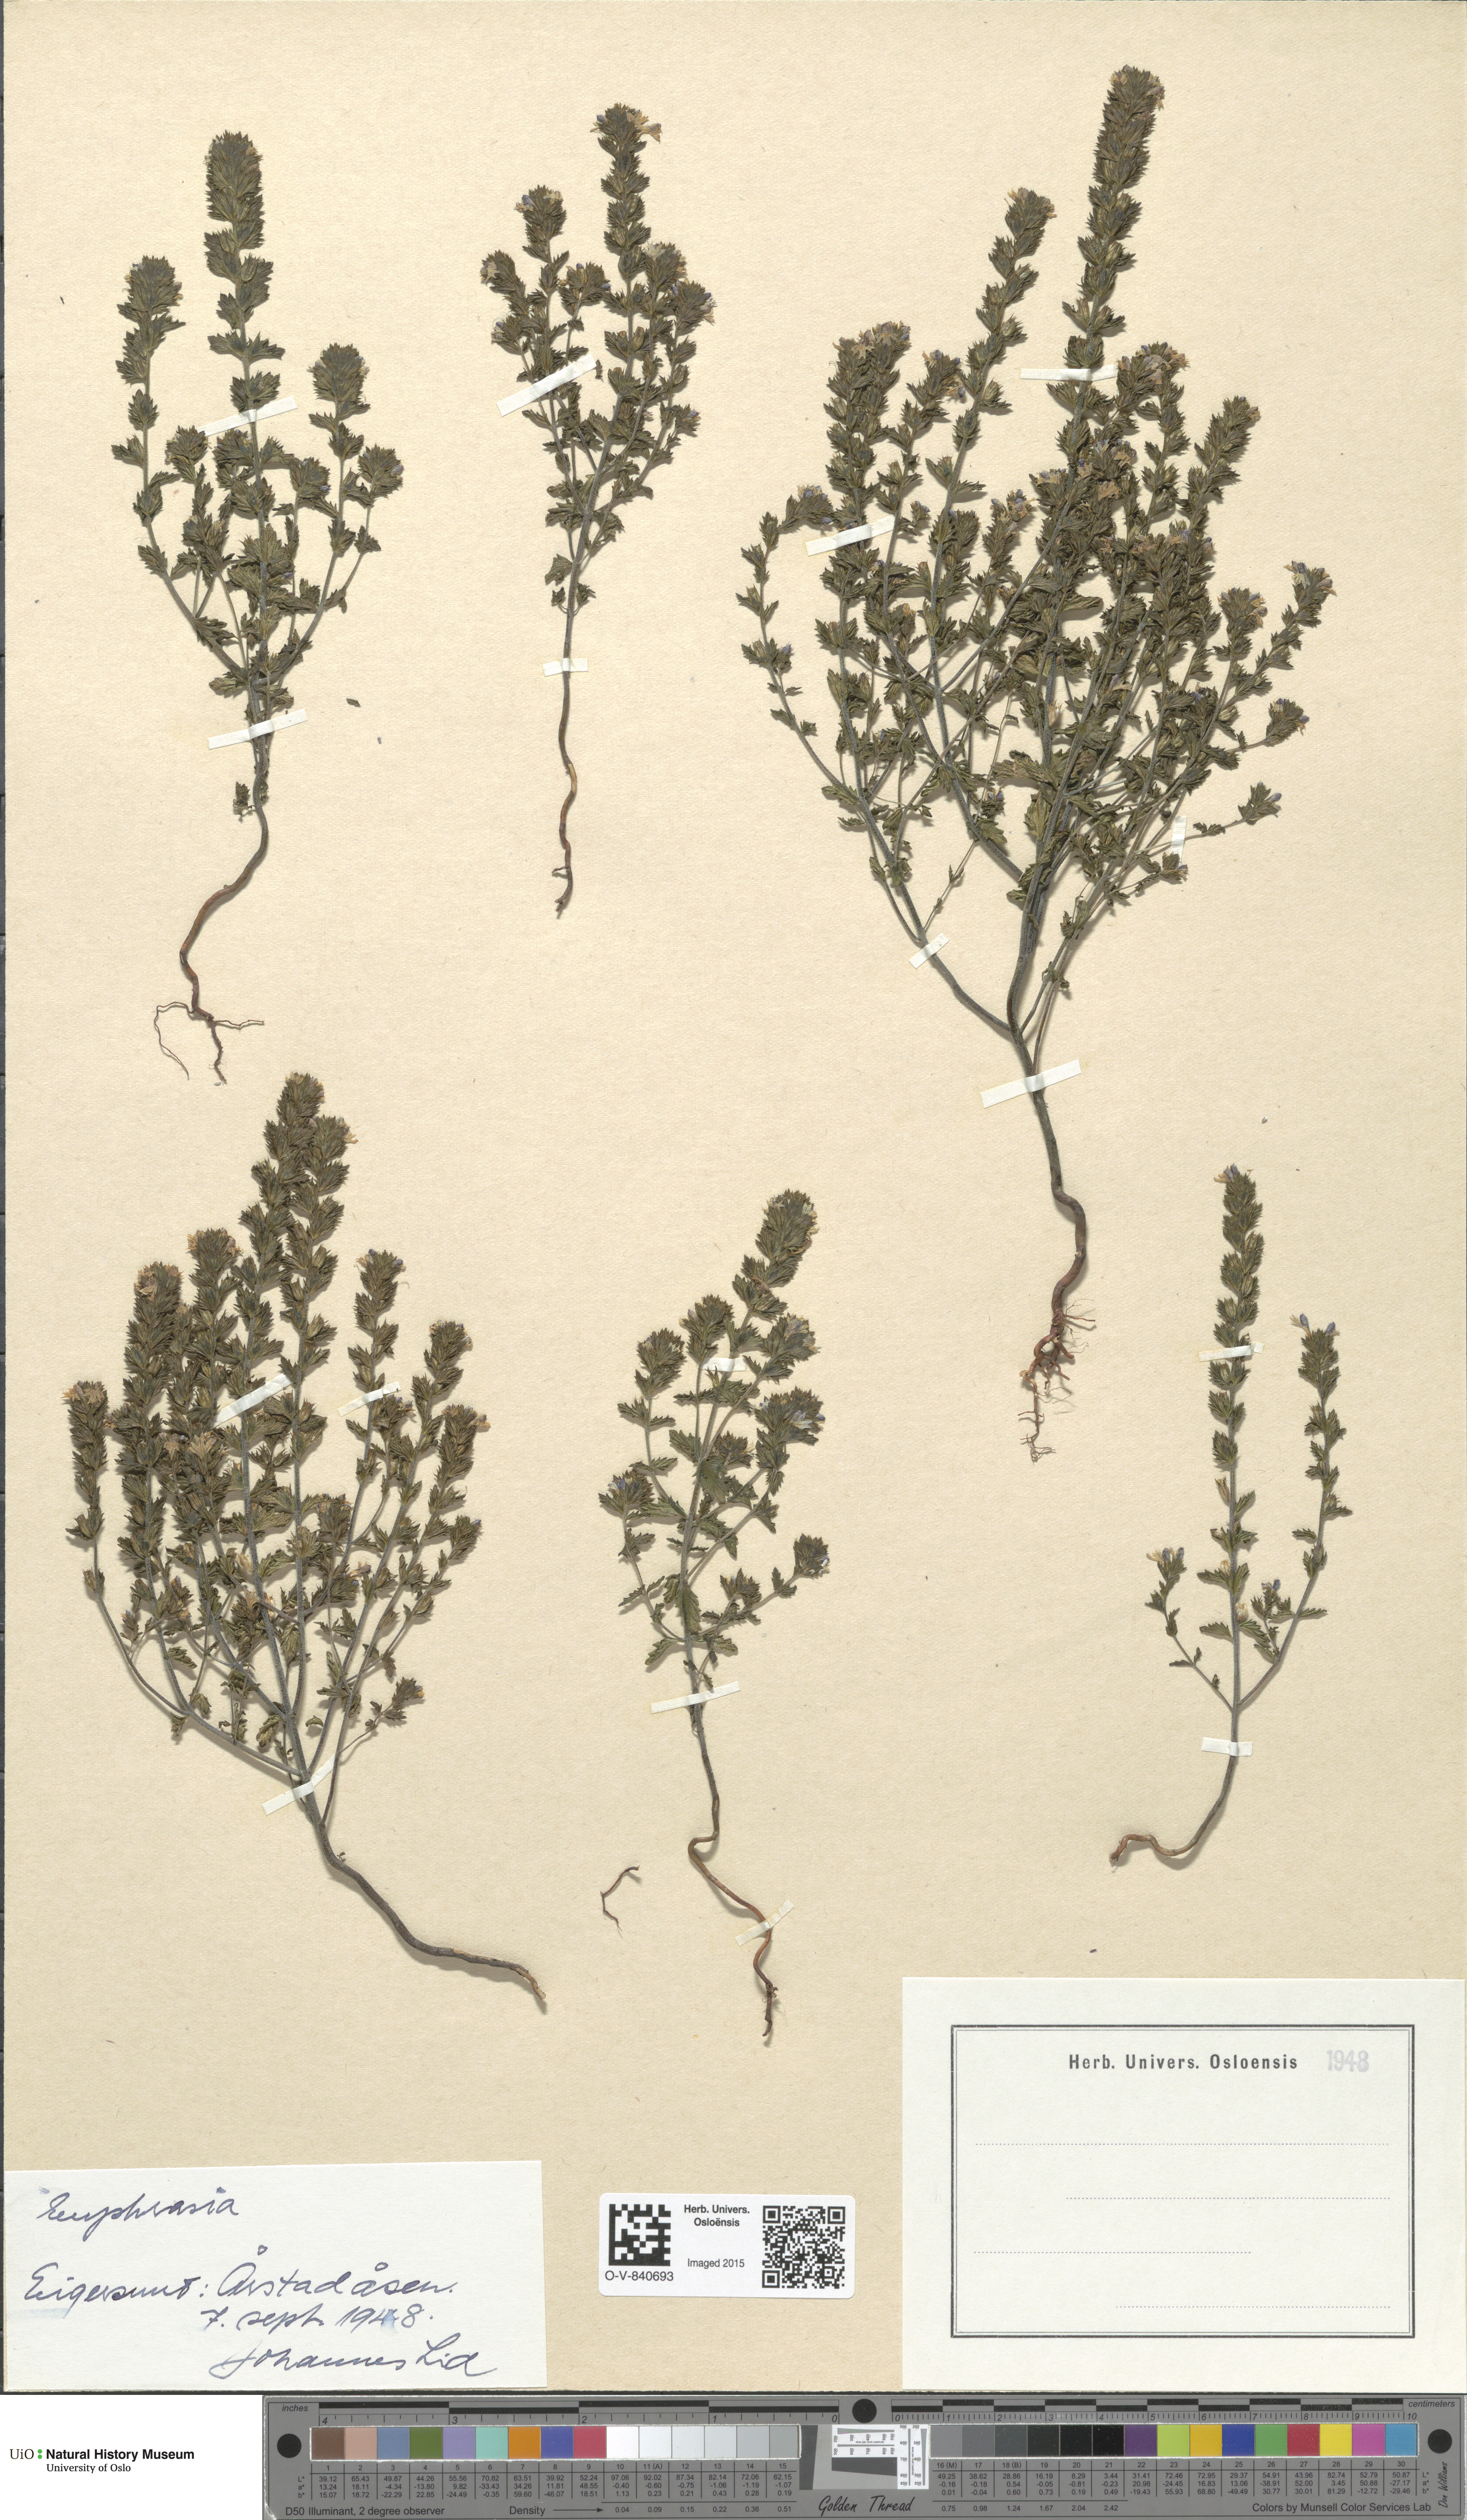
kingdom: Plantae
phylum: Tracheophyta
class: Magnoliopsida
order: Lamiales
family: Orobanchaceae
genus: Euphrasia
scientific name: Euphrasia
